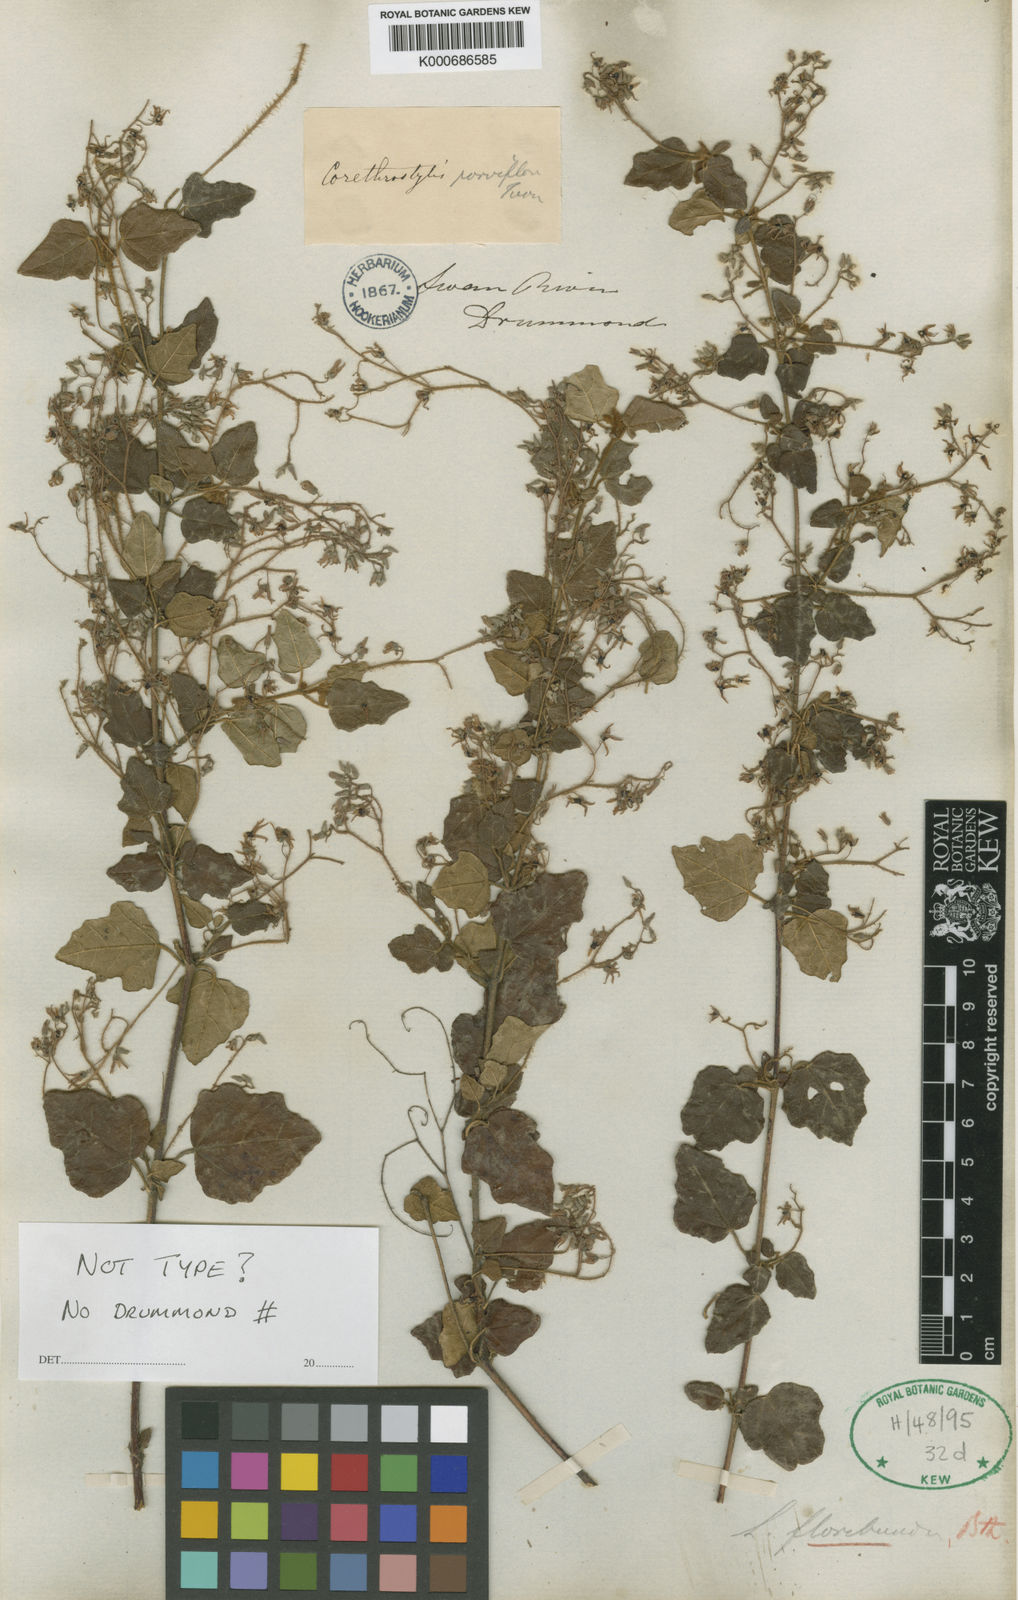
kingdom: Plantae
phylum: Tracheophyta
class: Magnoliopsida
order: Malvales
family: Malvaceae
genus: Lasiopetalum
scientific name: Lasiopetalum floribundum
